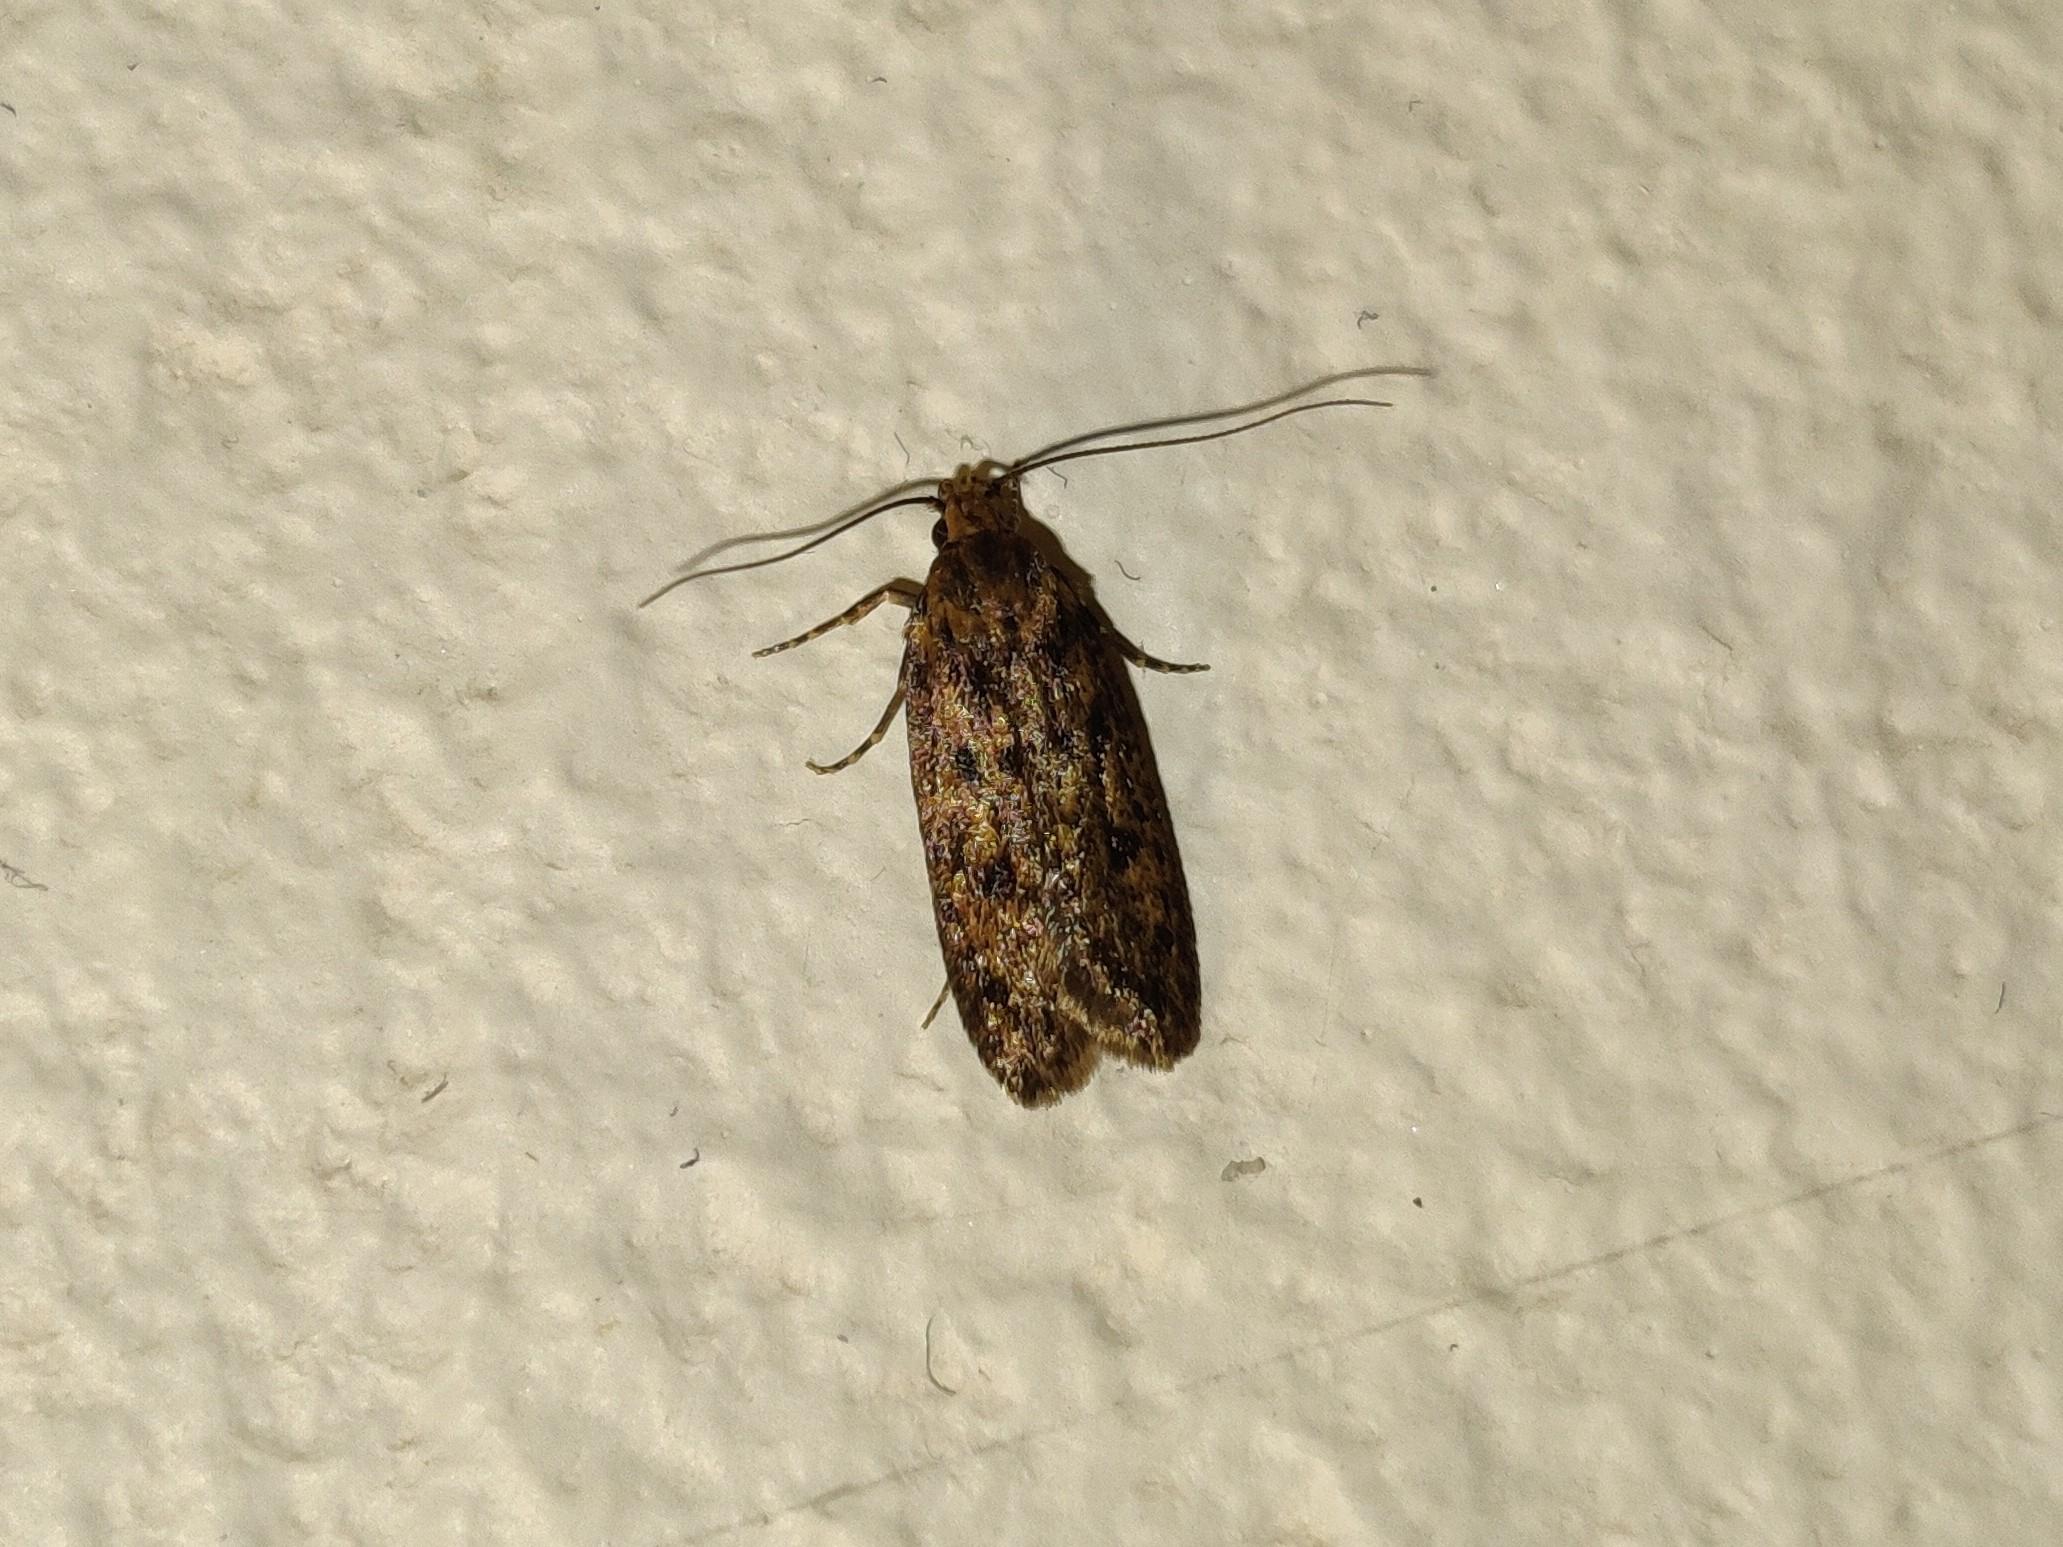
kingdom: Animalia
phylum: Arthropoda
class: Insecta
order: Lepidoptera
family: Oecophoridae
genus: Hofmannophila
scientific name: Hofmannophila pseudospretella
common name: Frømøl
